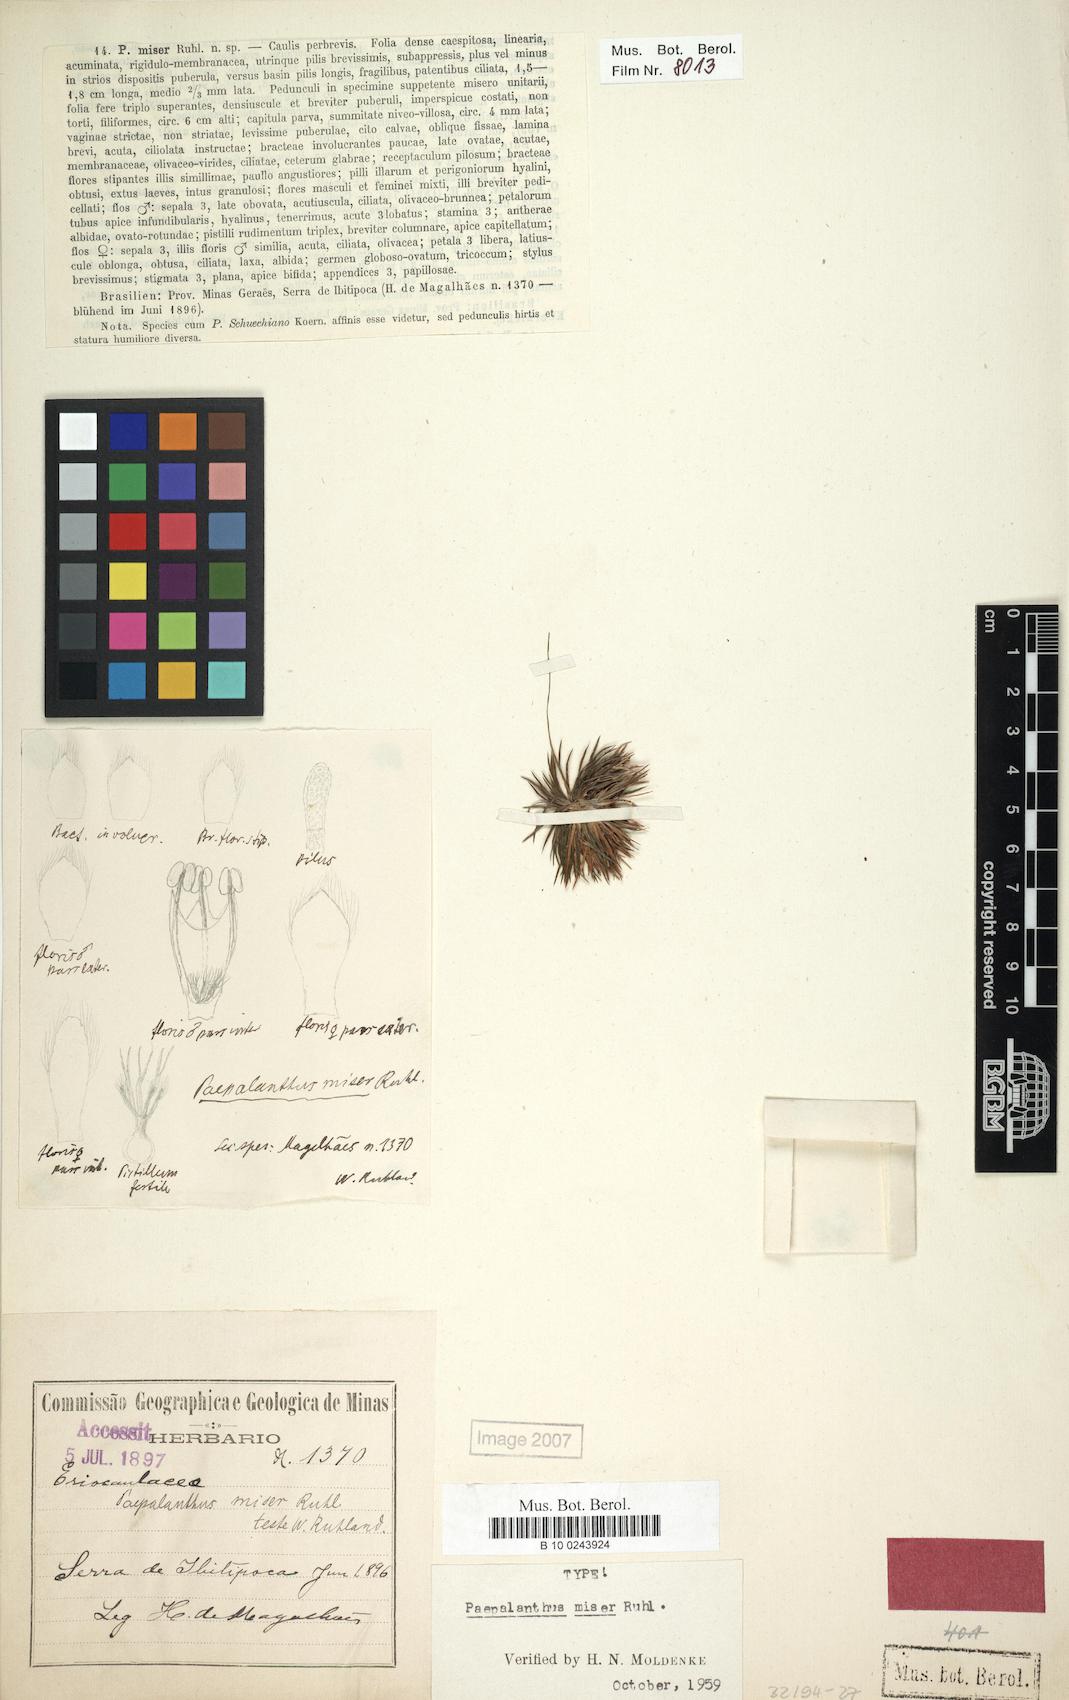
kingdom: Plantae
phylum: Tracheophyta
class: Liliopsida
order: Poales
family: Eriocaulaceae
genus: Paepalanthus
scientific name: Paepalanthus miser
